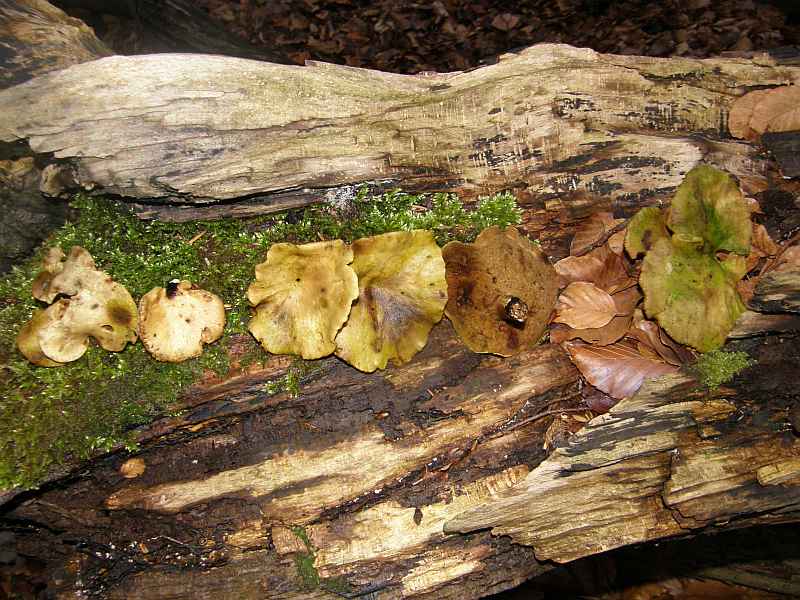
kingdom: Fungi
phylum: Basidiomycota
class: Agaricomycetes
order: Polyporales
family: Polyporaceae
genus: Cerioporus
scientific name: Cerioporus varius
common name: foranderlig stilkporesvamp
